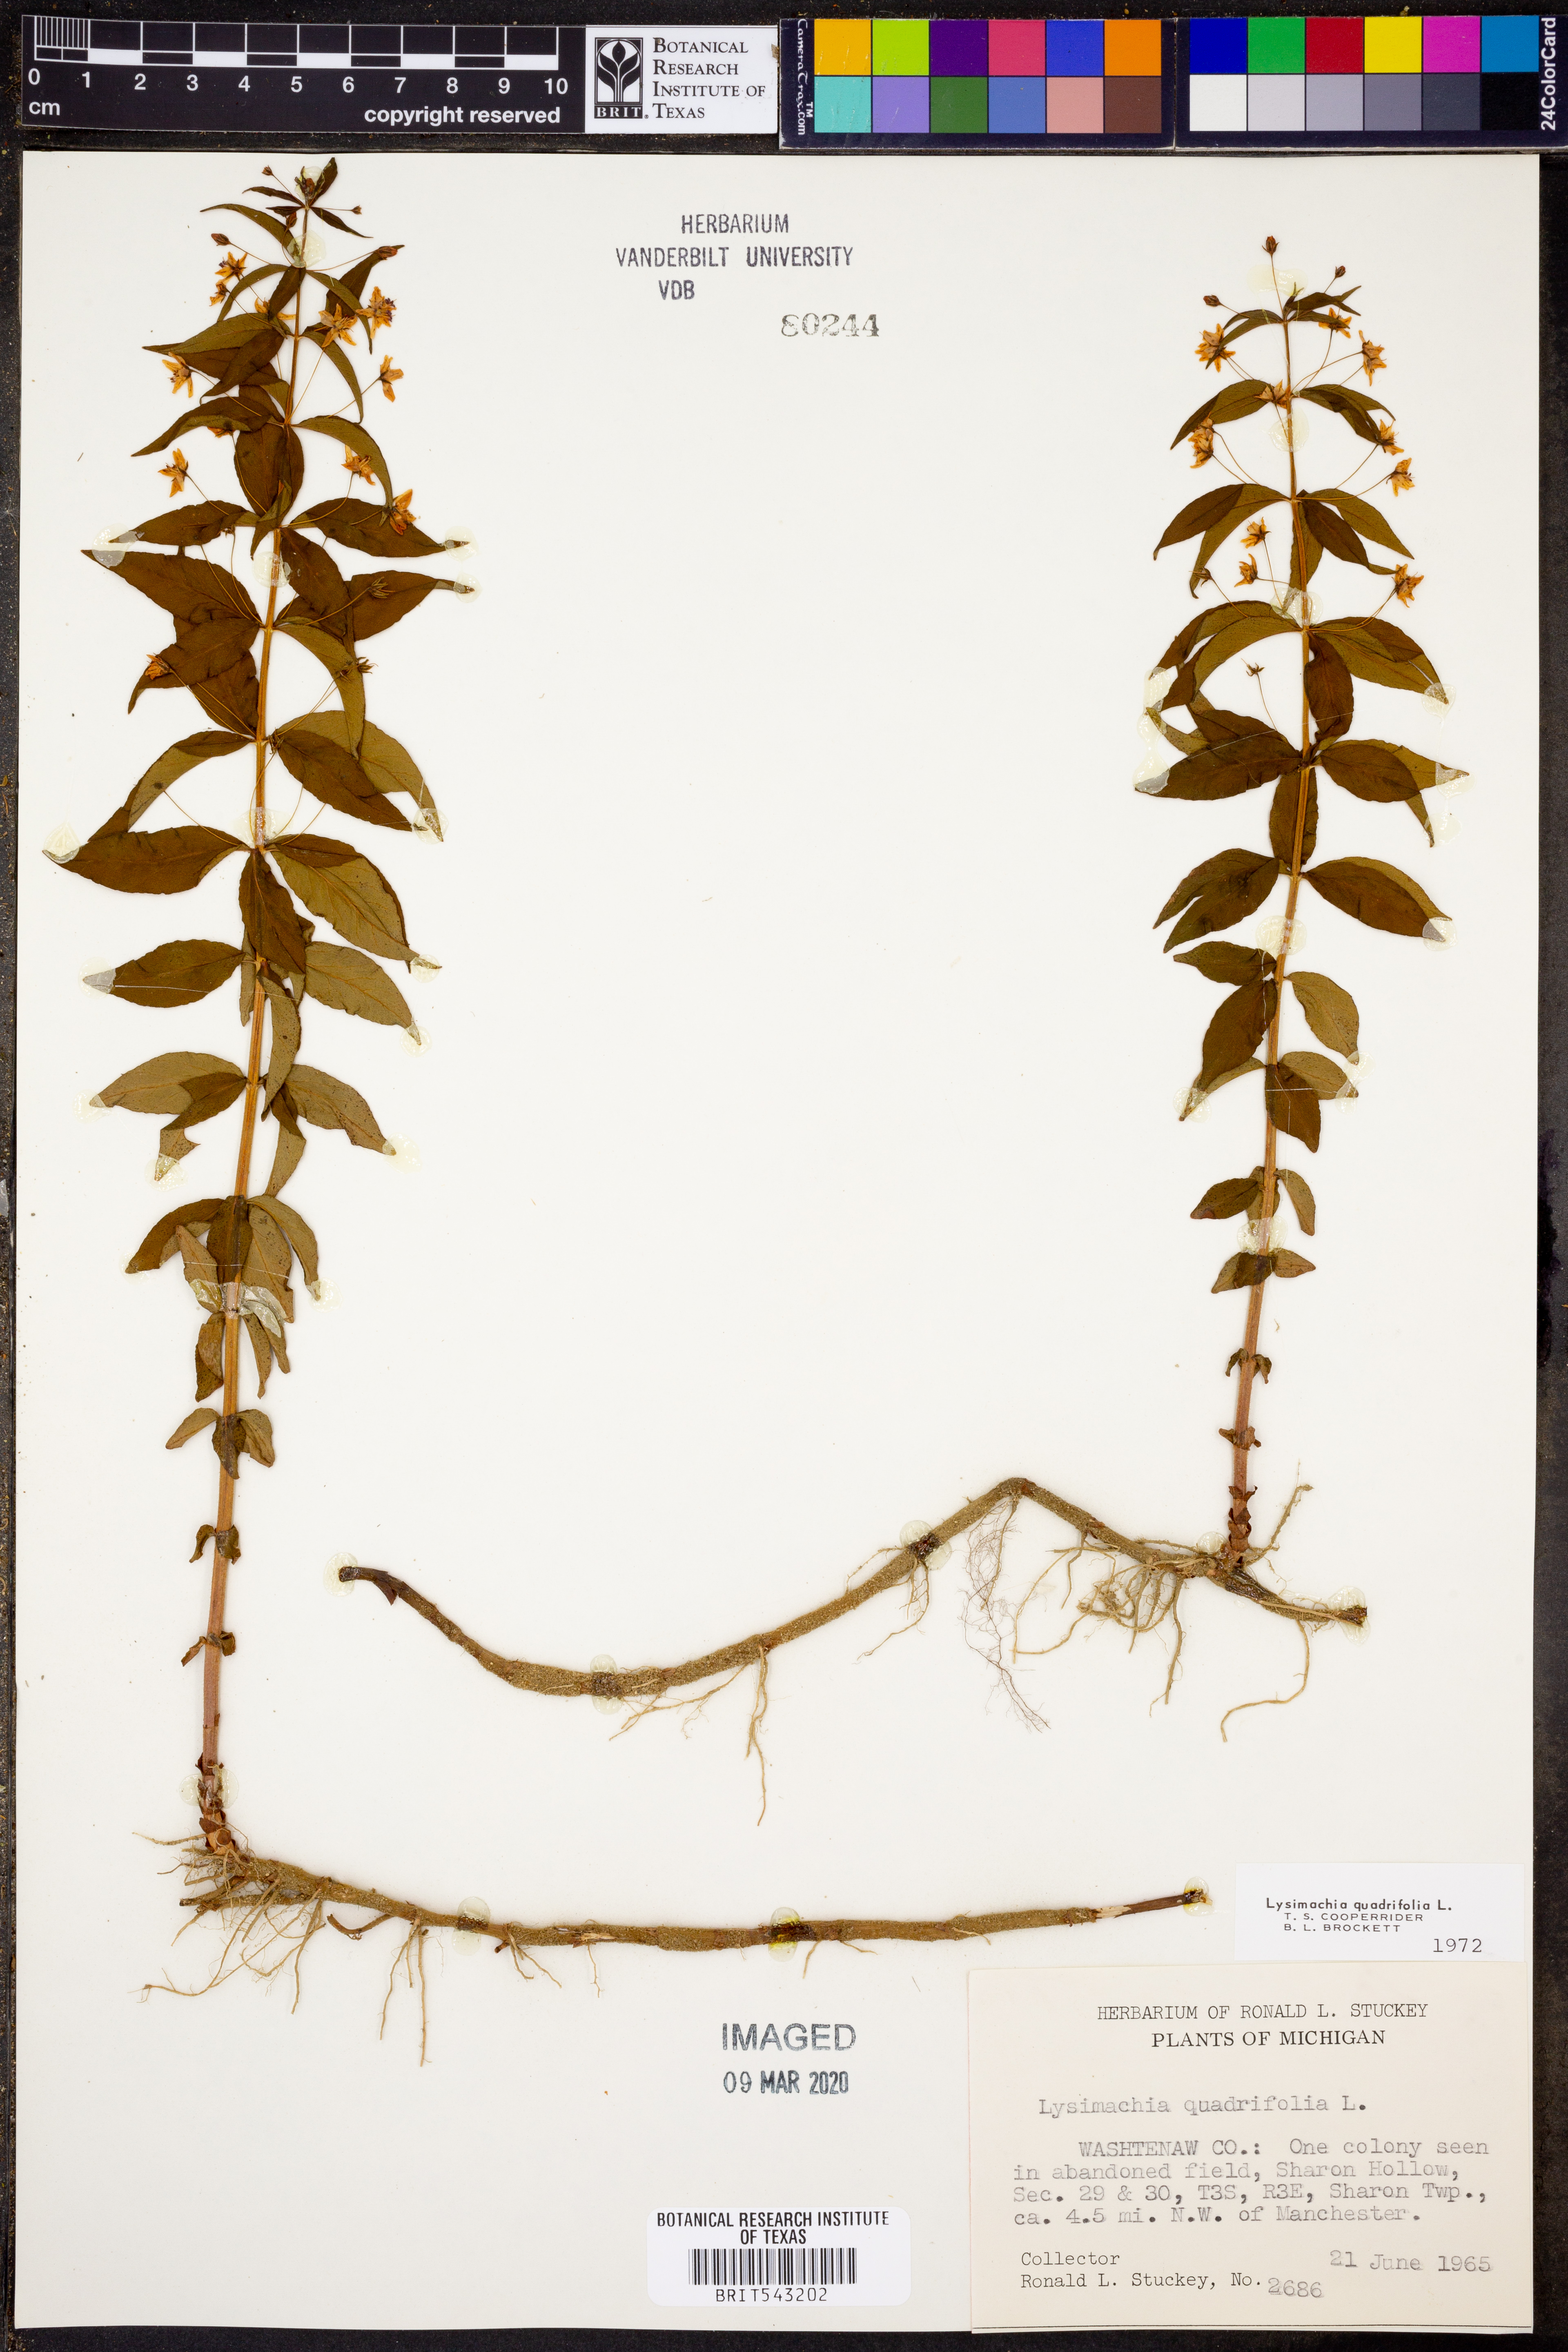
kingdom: Plantae
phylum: Tracheophyta
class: Magnoliopsida
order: Ericales
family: Primulaceae
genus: Lysimachia
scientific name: Lysimachia quadrifolia
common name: Whorled loosestrife
